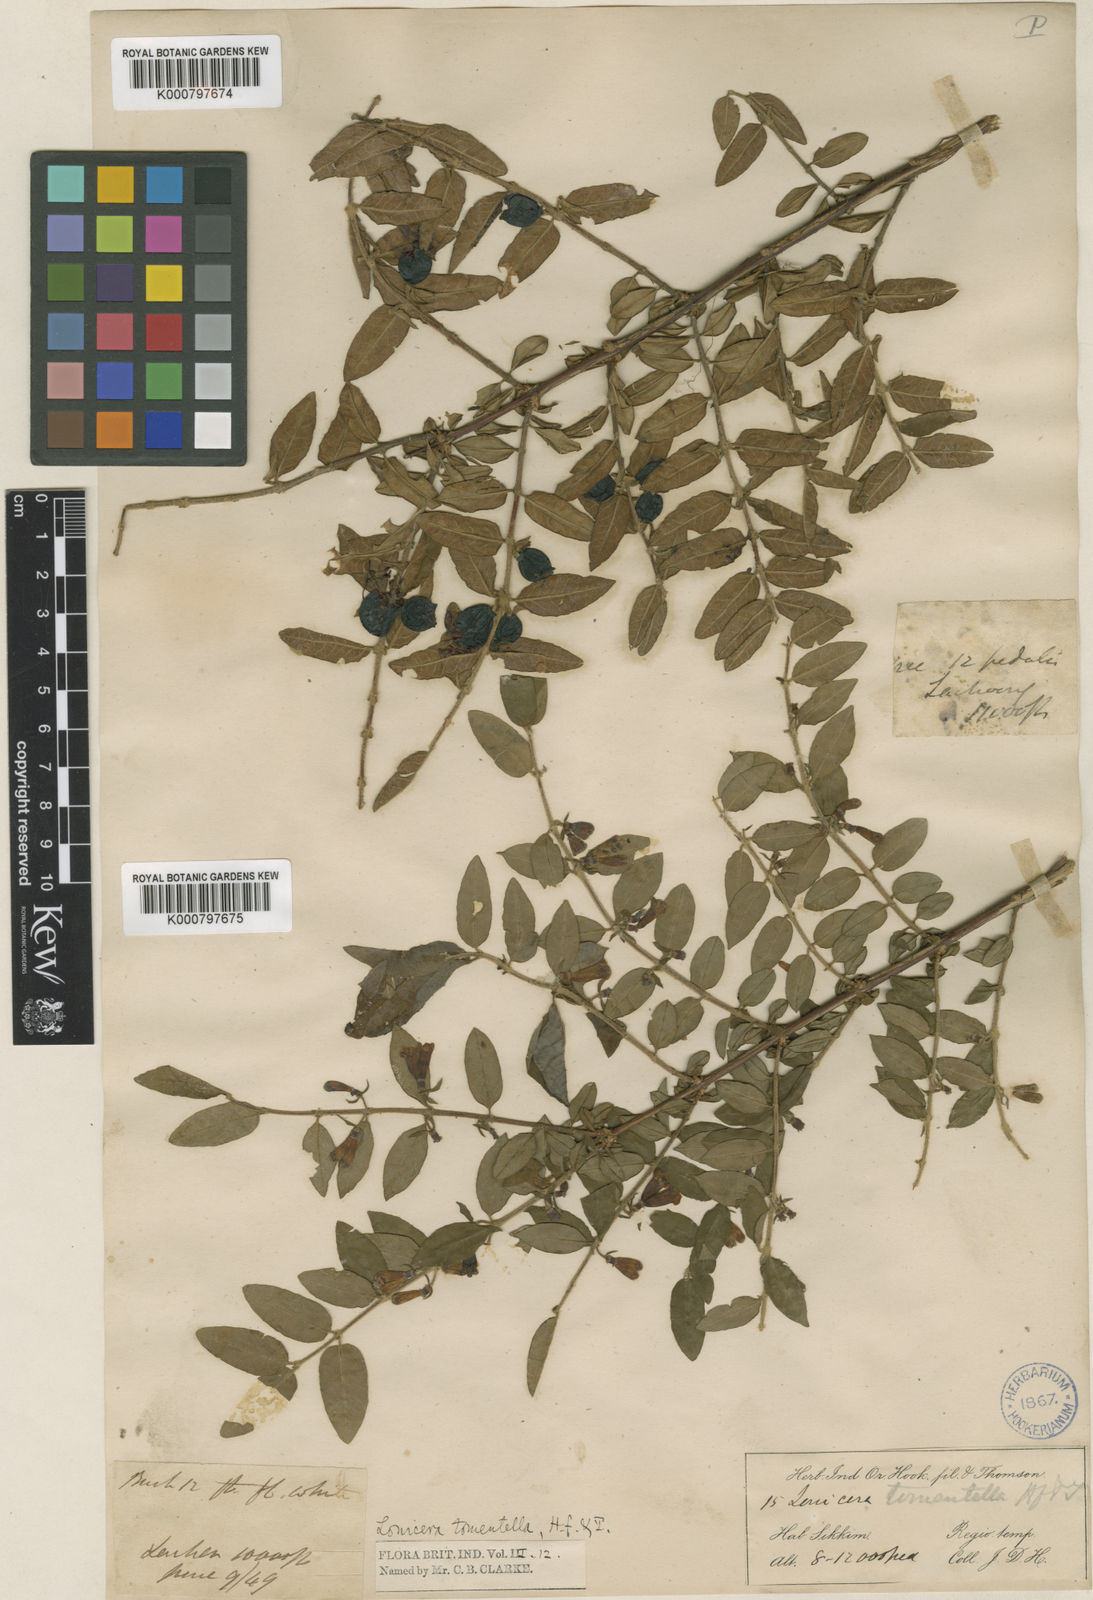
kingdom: Plantae
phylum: Tracheophyta
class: Magnoliopsida
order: Dipsacales
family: Caprifoliaceae
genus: Lonicera
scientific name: Lonicera tomentella
